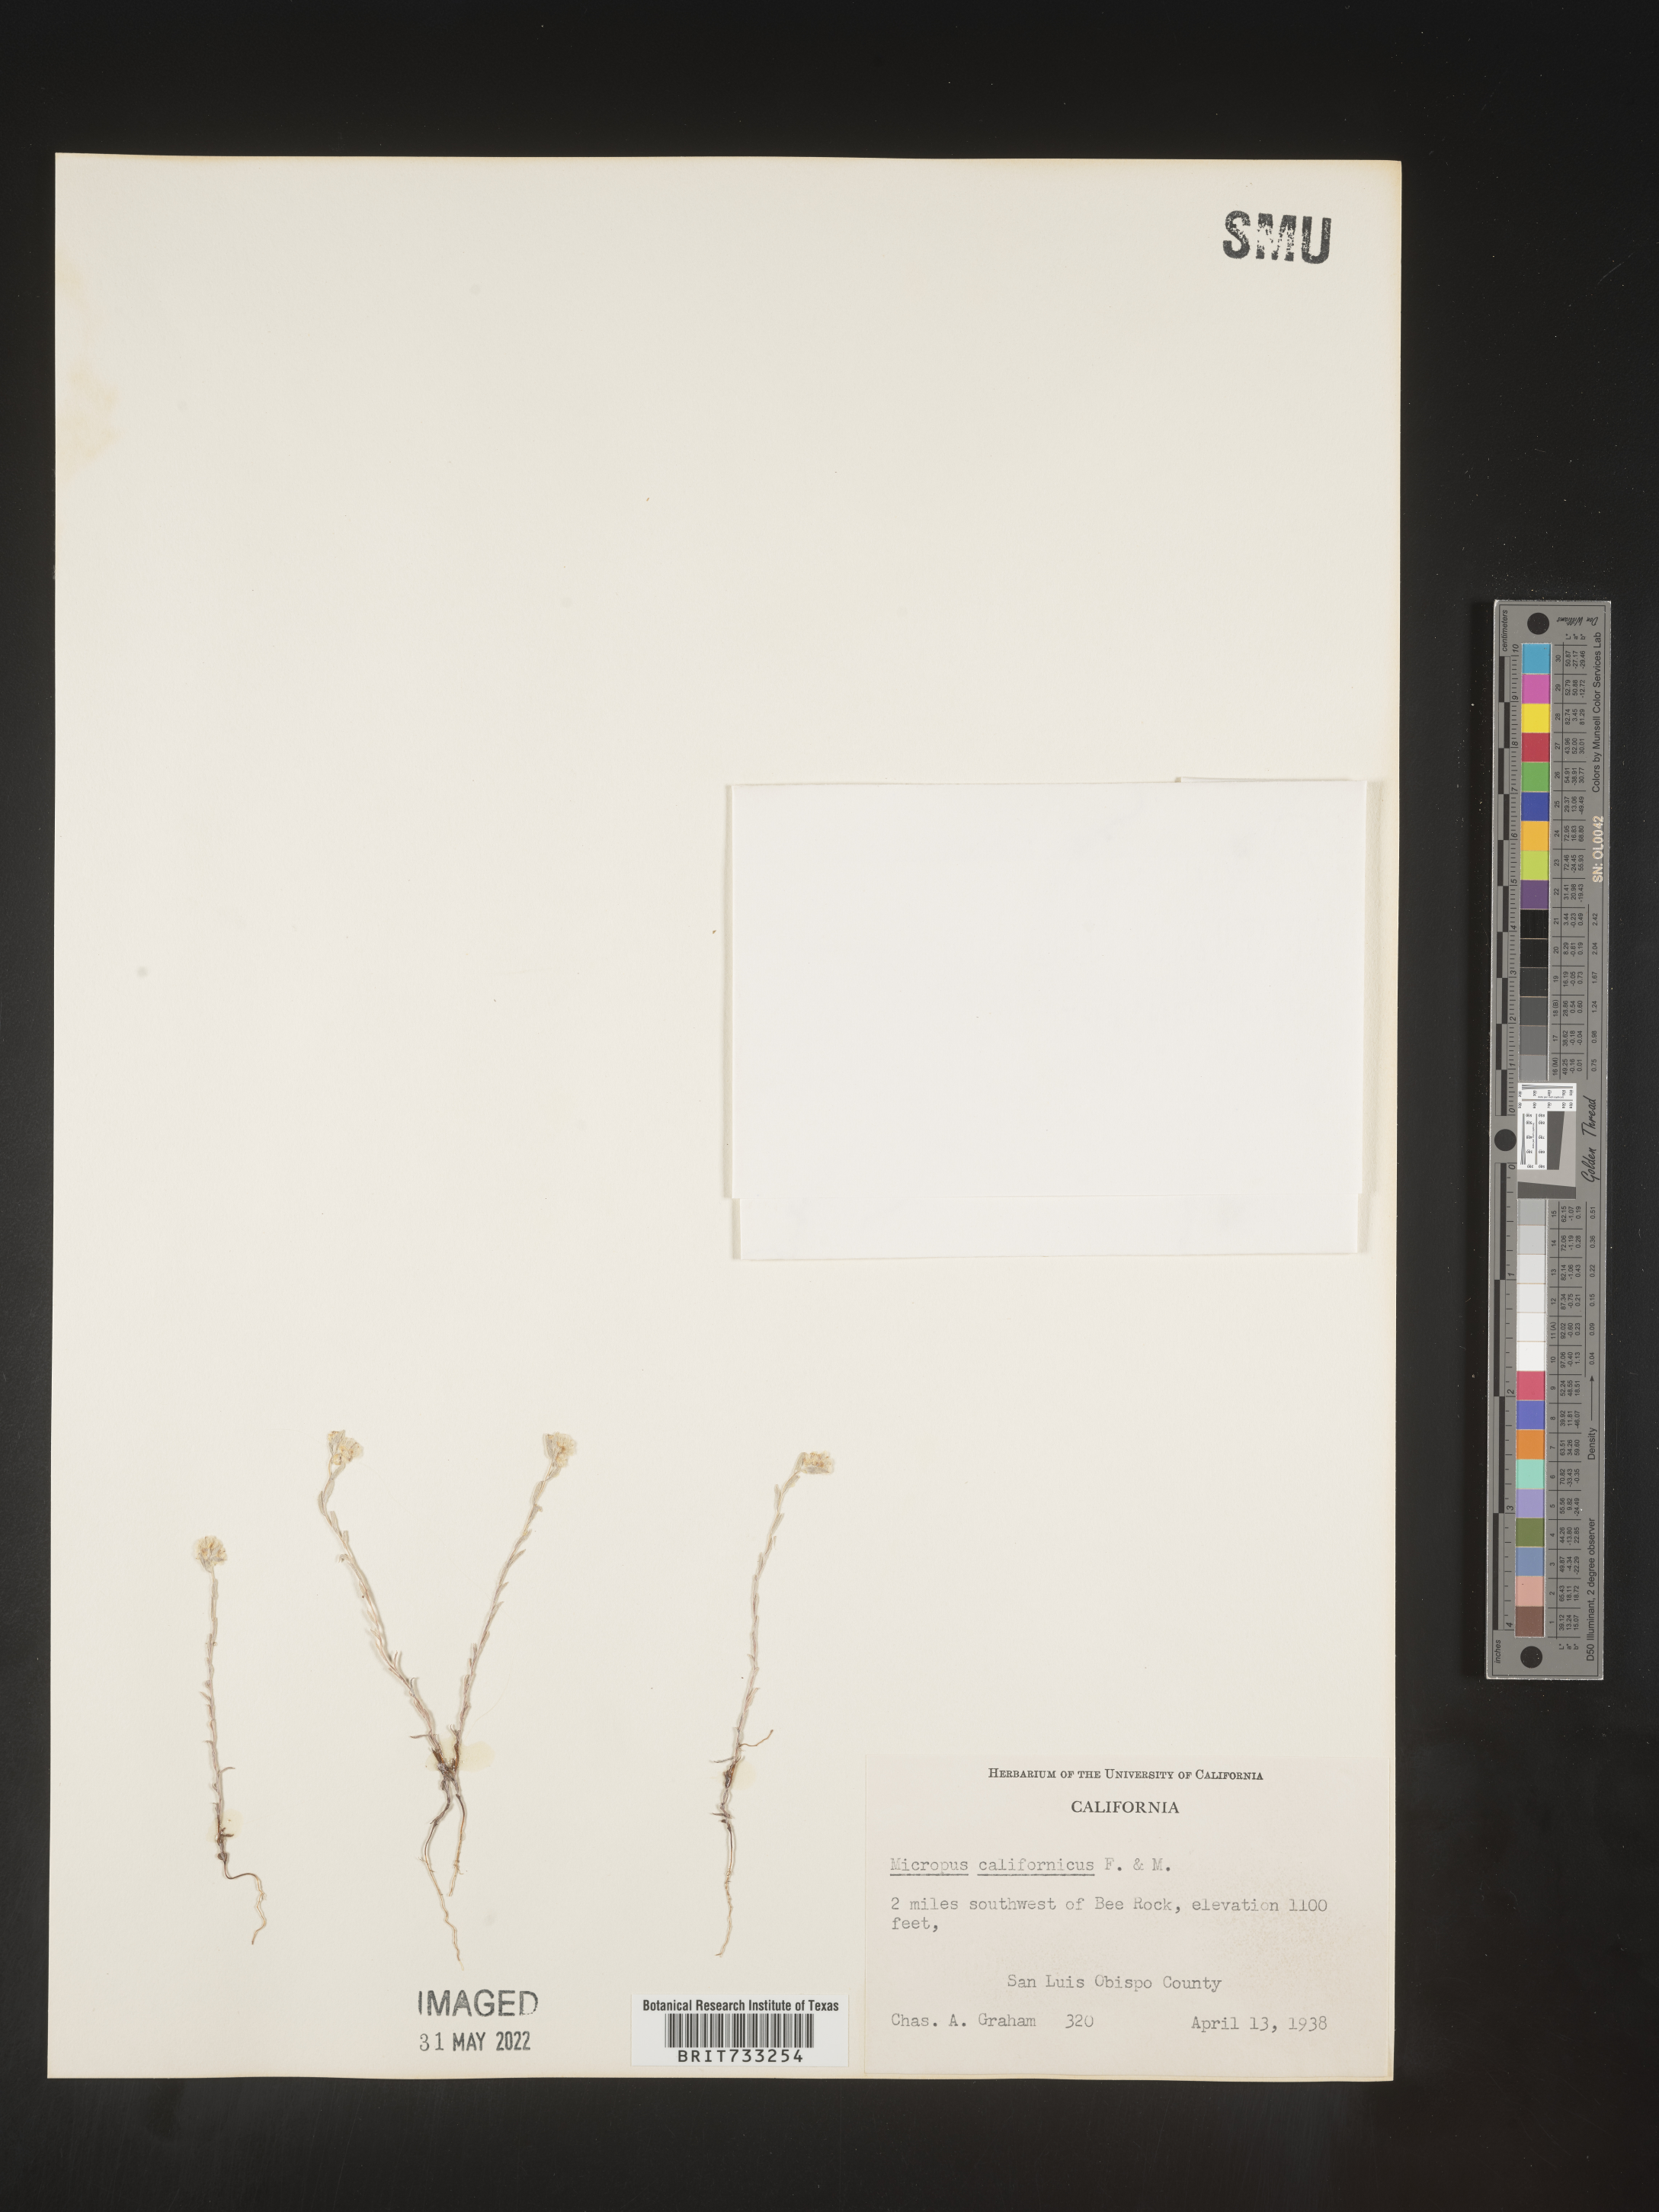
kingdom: Plantae
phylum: Tracheophyta
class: Magnoliopsida
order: Asterales
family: Asteraceae
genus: Micropus
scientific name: Micropus
